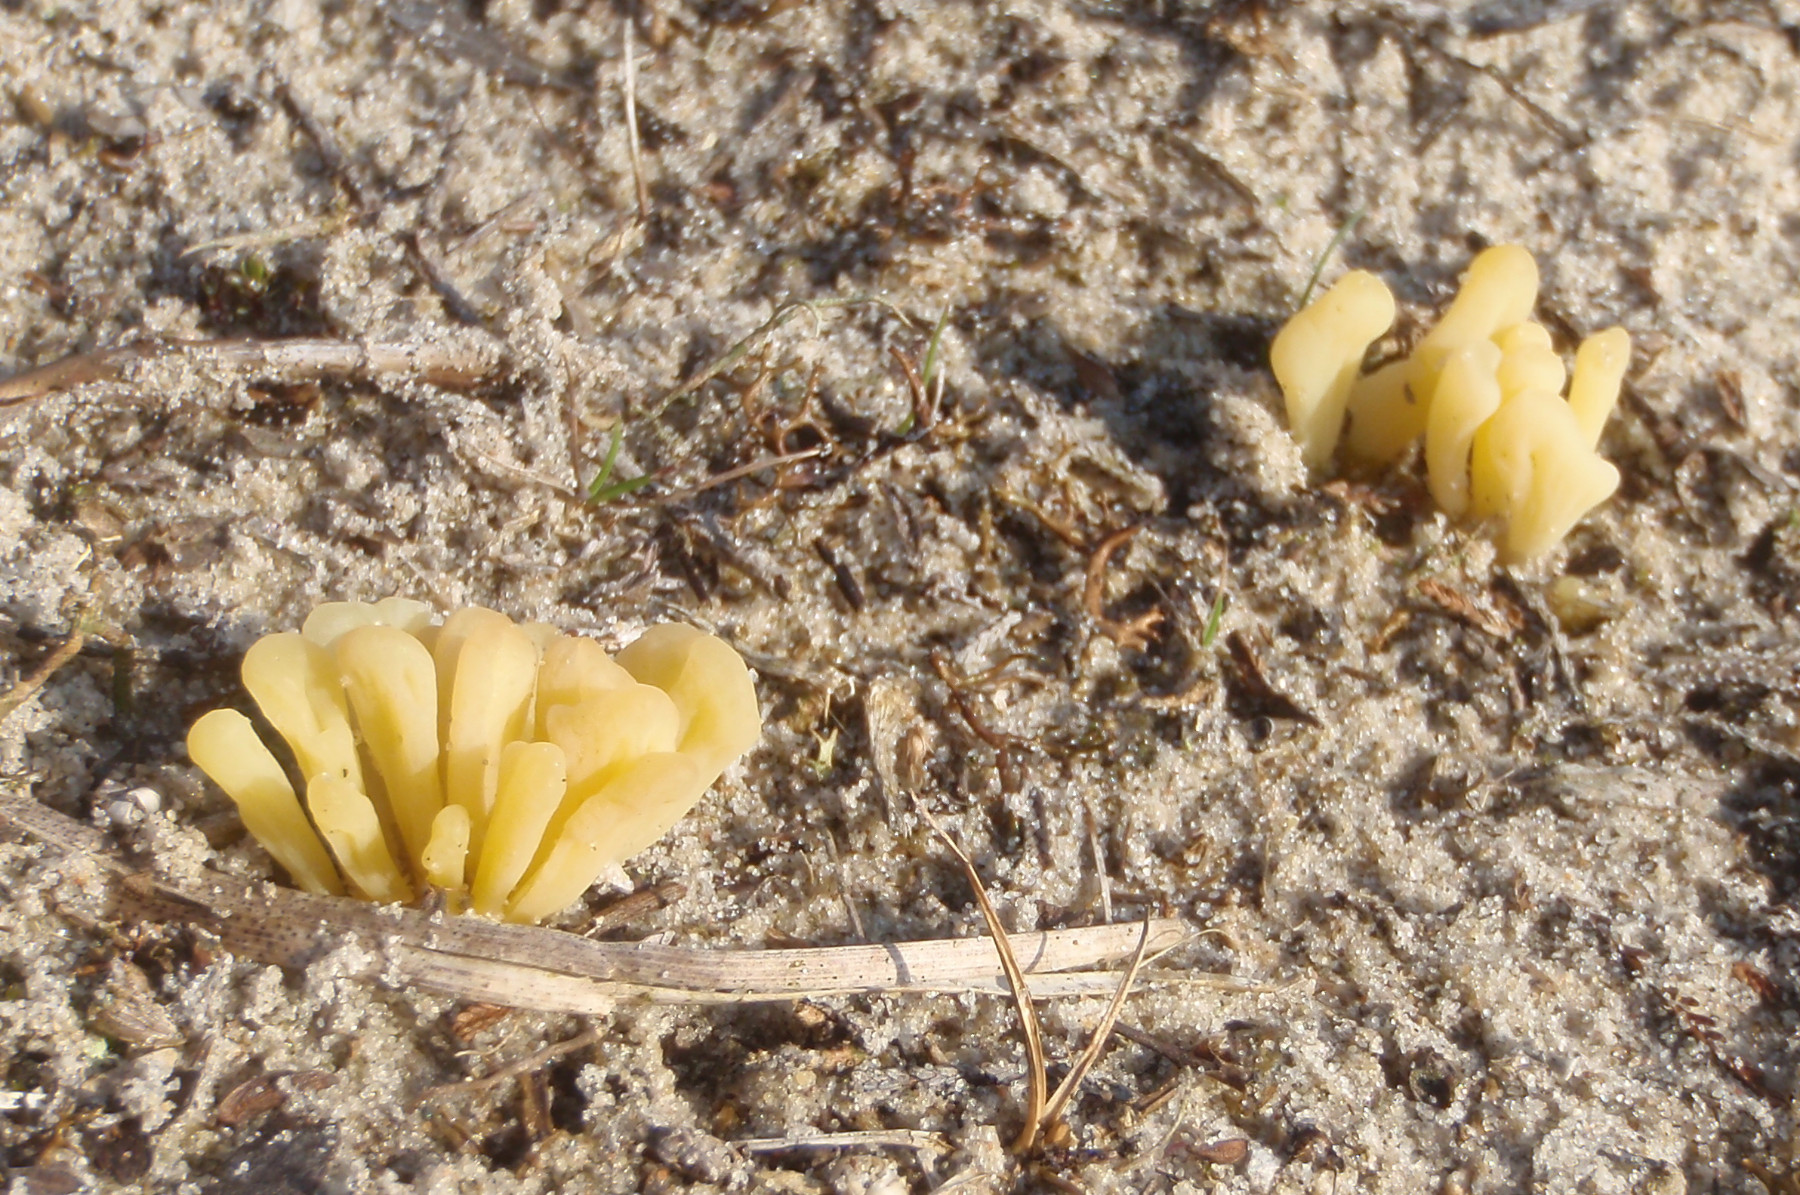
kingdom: Fungi
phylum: Basidiomycota
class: Agaricomycetes
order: Agaricales
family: Clavariaceae
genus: Clavaria
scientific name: Clavaria argillacea
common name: lerfarvet køllesvamp
